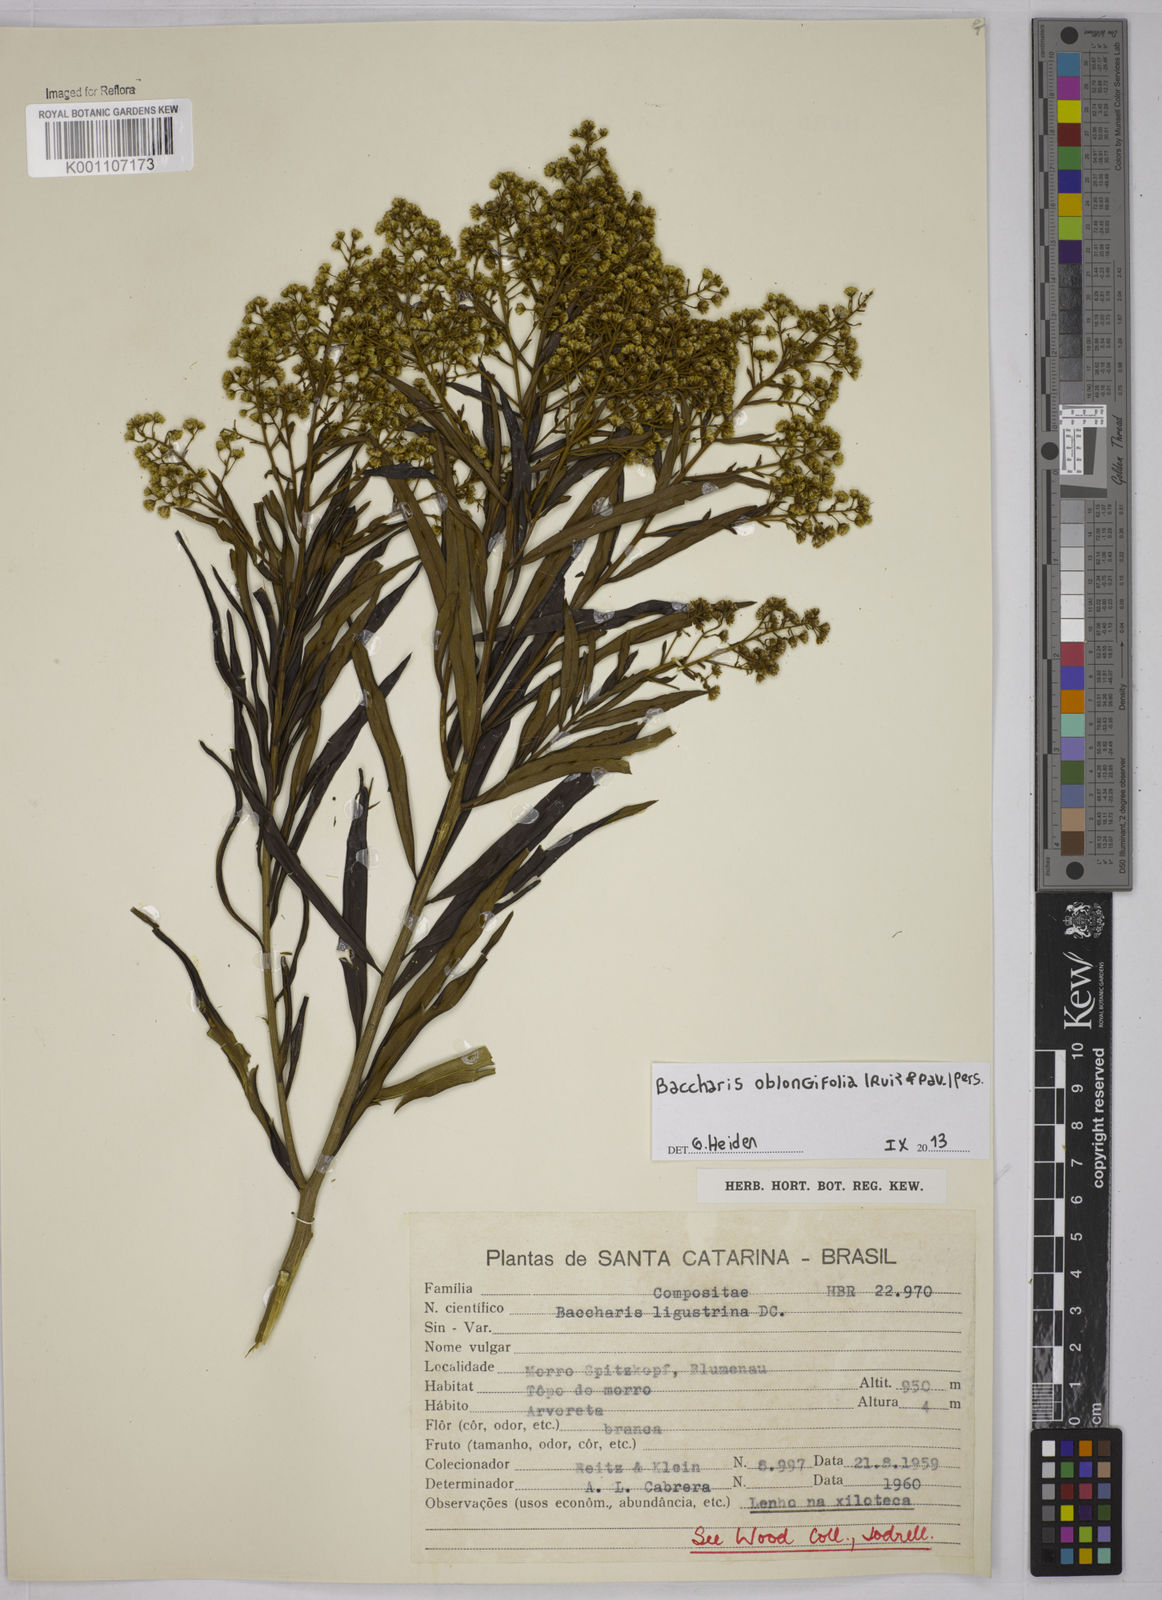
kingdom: Plantae
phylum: Tracheophyta
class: Magnoliopsida
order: Asterales
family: Asteraceae
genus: Baccharis
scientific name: Baccharis oblongifolia
